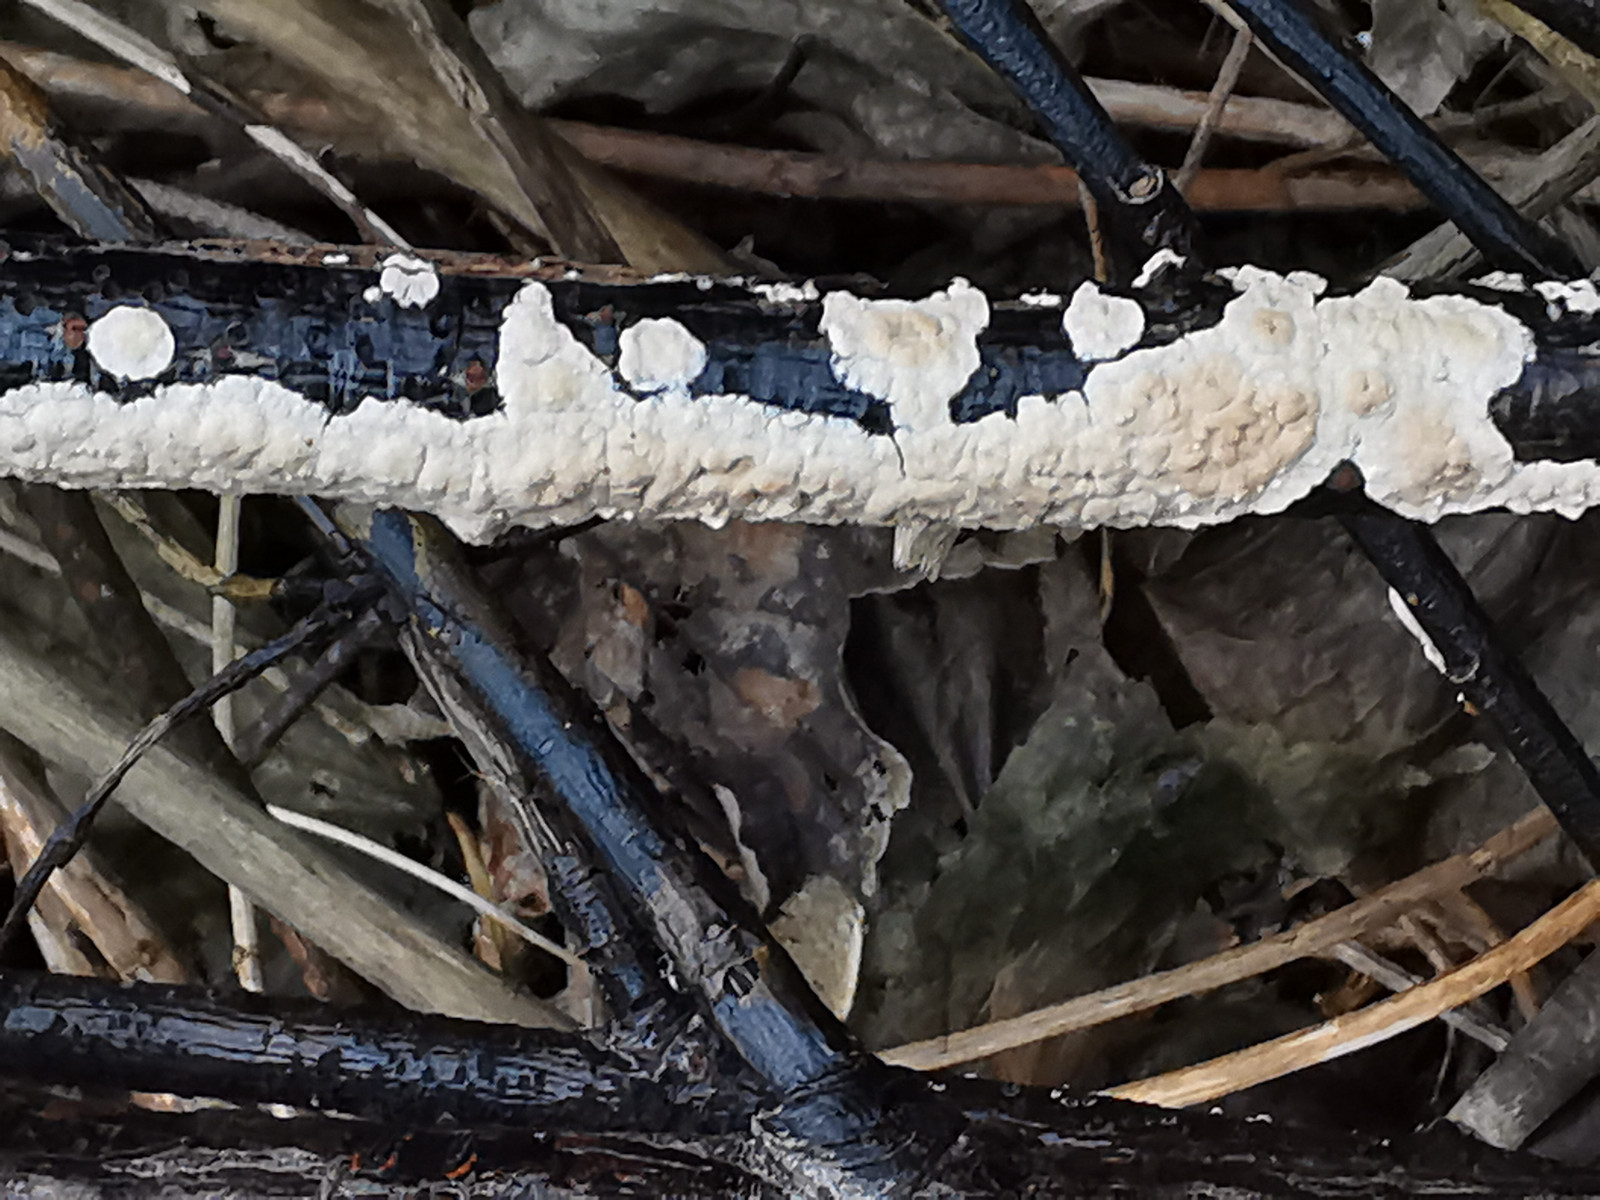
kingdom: Fungi
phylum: Basidiomycota
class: Agaricomycetes
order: Agaricales
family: Physalacriaceae
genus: Cylindrobasidium
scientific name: Cylindrobasidium evolvens
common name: sprækkehinde
